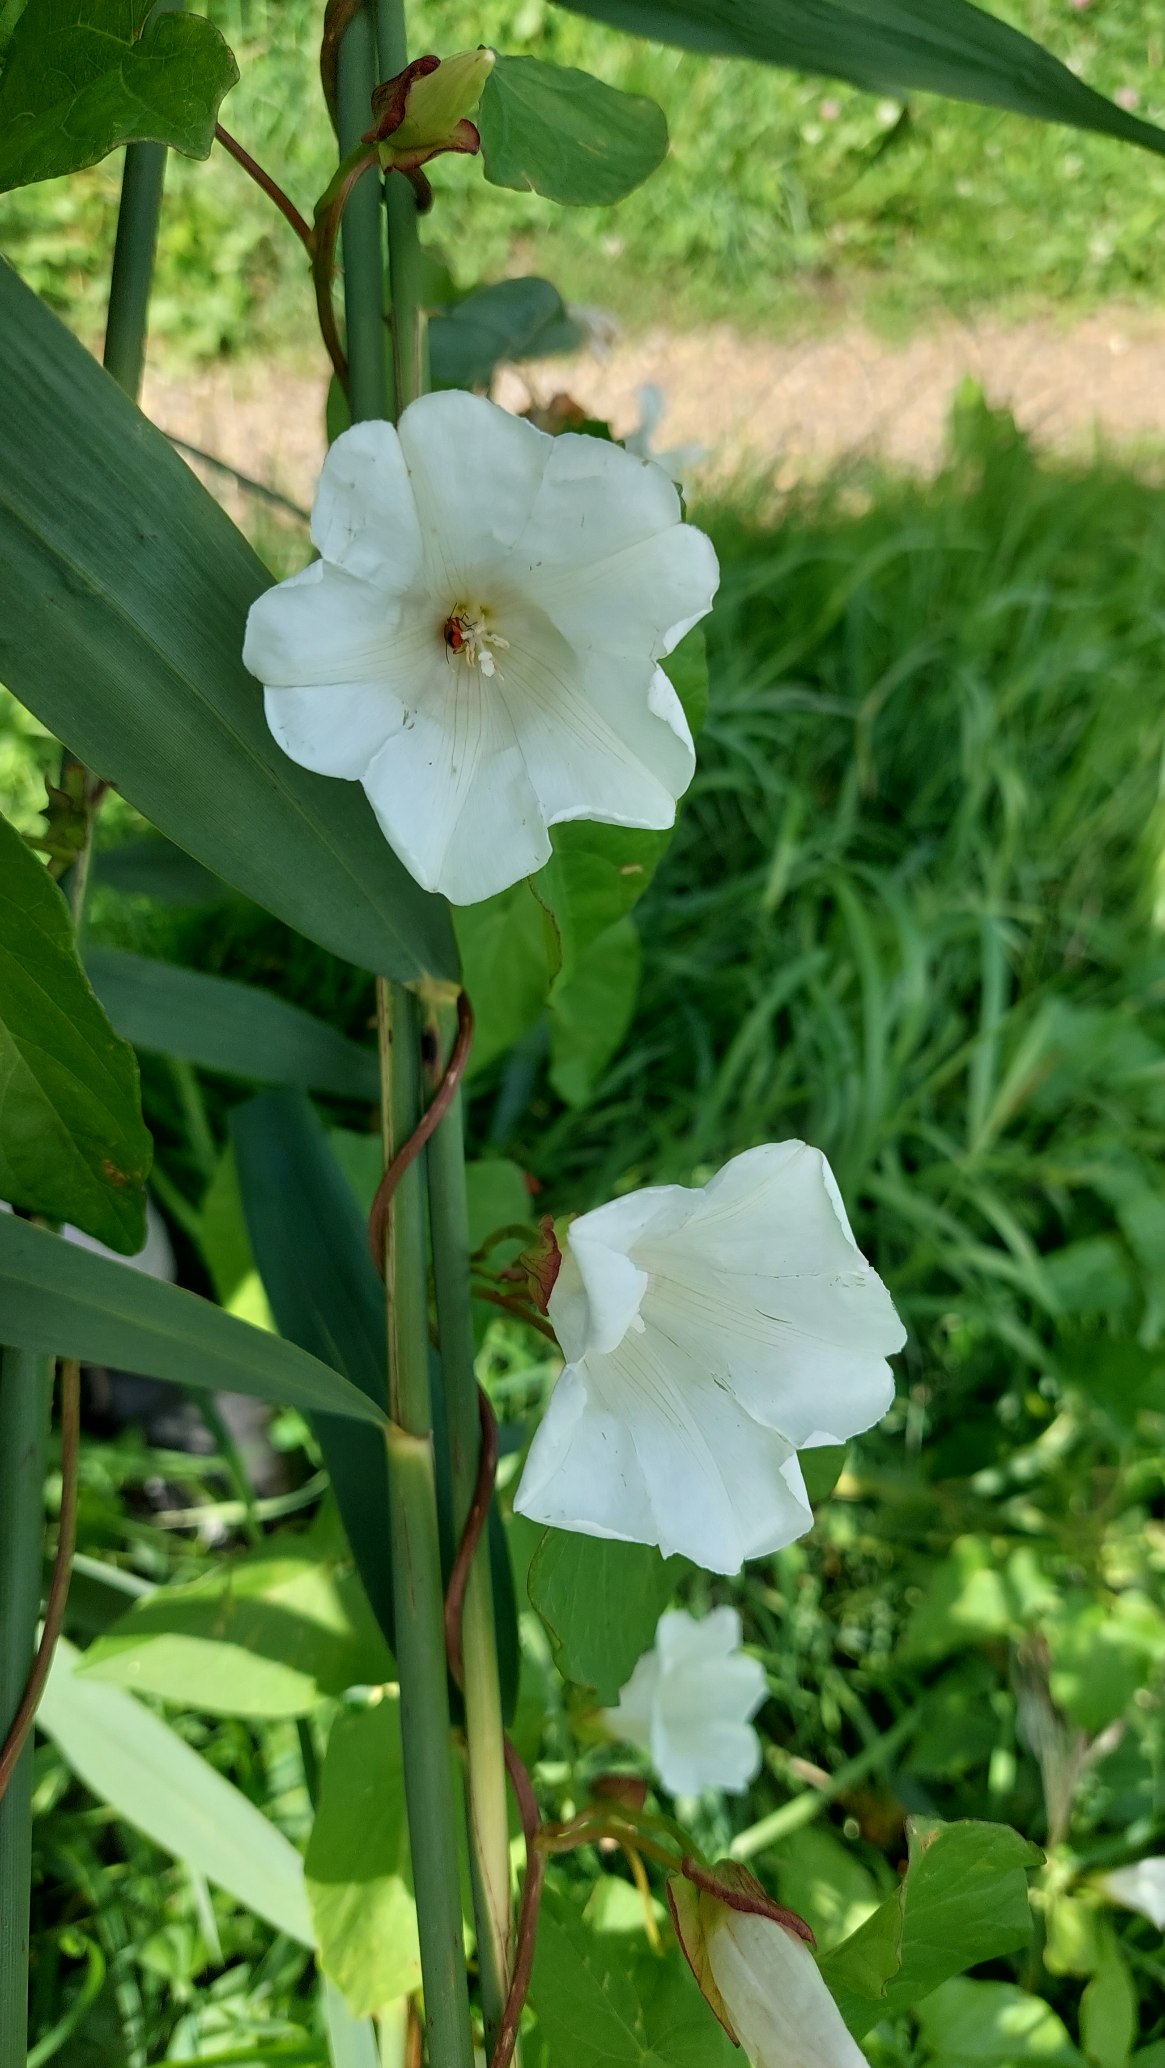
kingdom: Plantae
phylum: Tracheophyta
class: Magnoliopsida
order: Solanales
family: Convolvulaceae
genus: Calystegia
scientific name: Calystegia sepium
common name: Gærde-snerle
